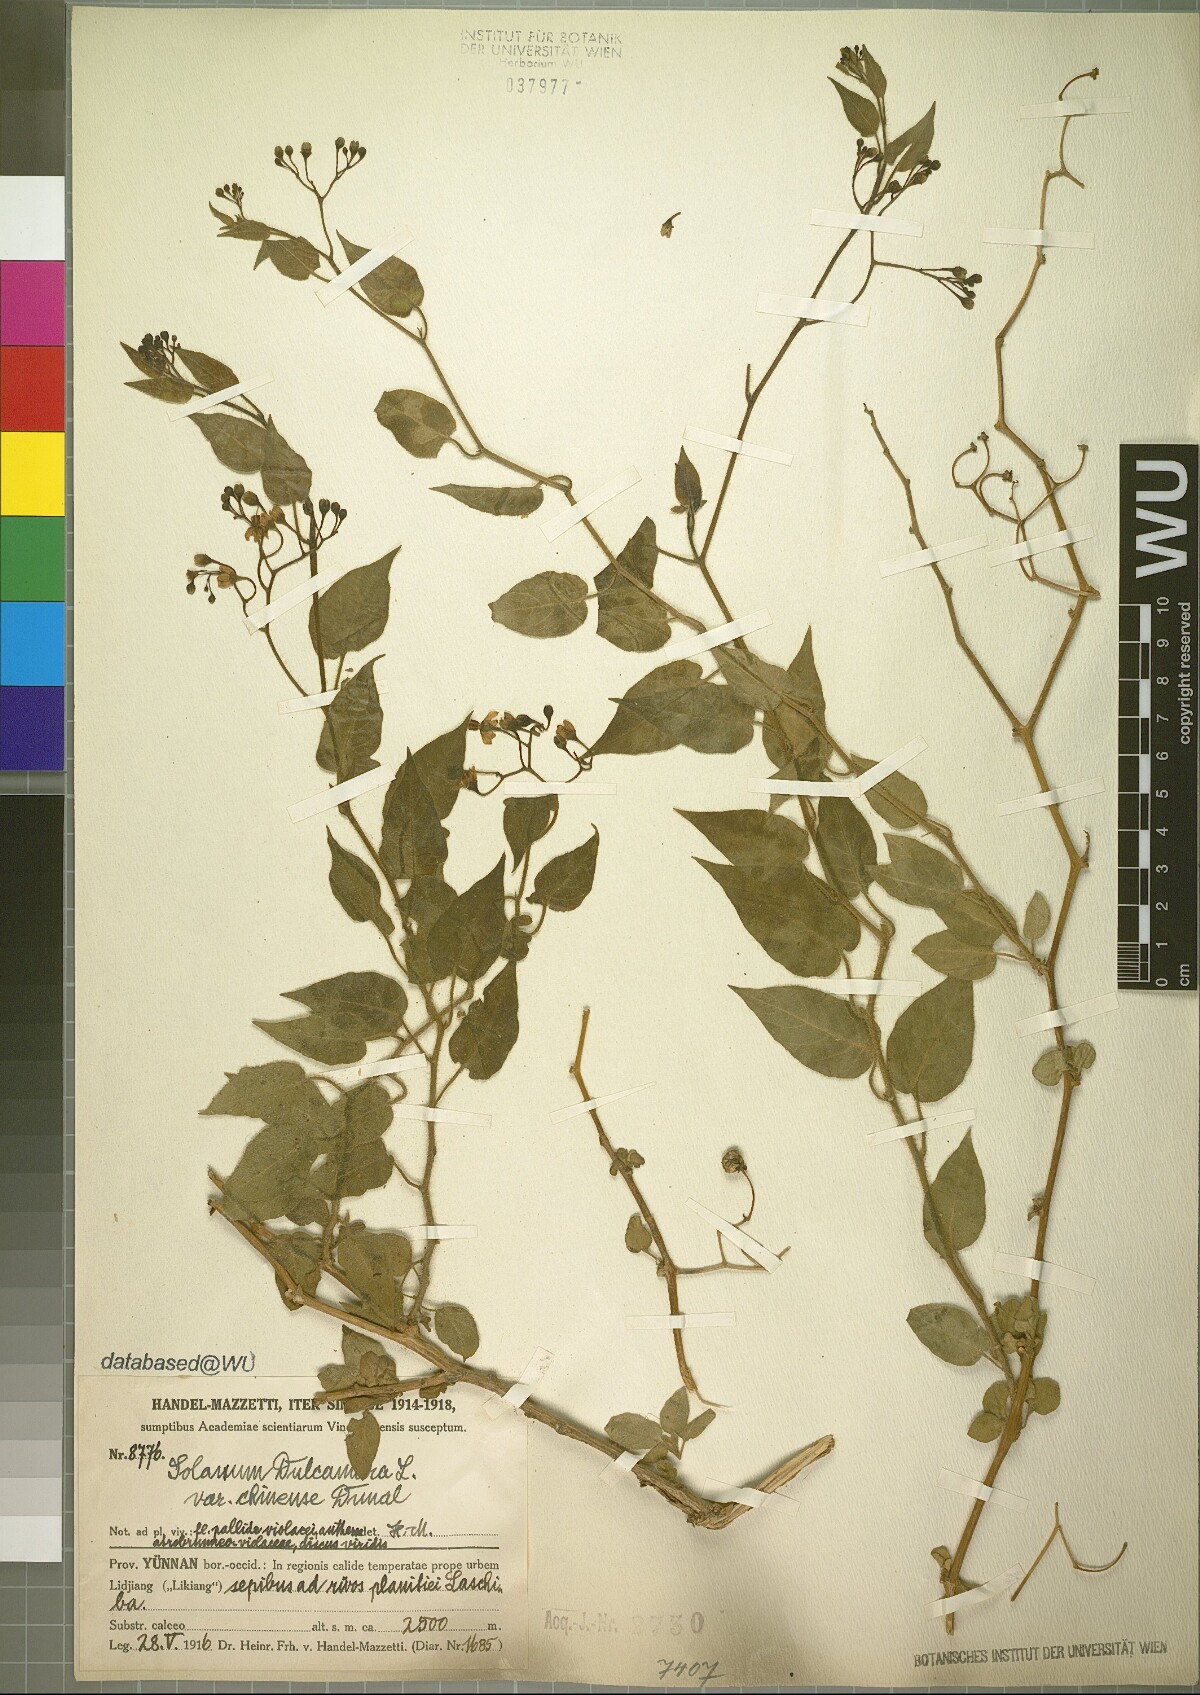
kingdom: Plantae
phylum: Tracheophyta
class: Magnoliopsida
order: Solanales
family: Solanaceae
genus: Solanum
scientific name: Solanum lyratum
